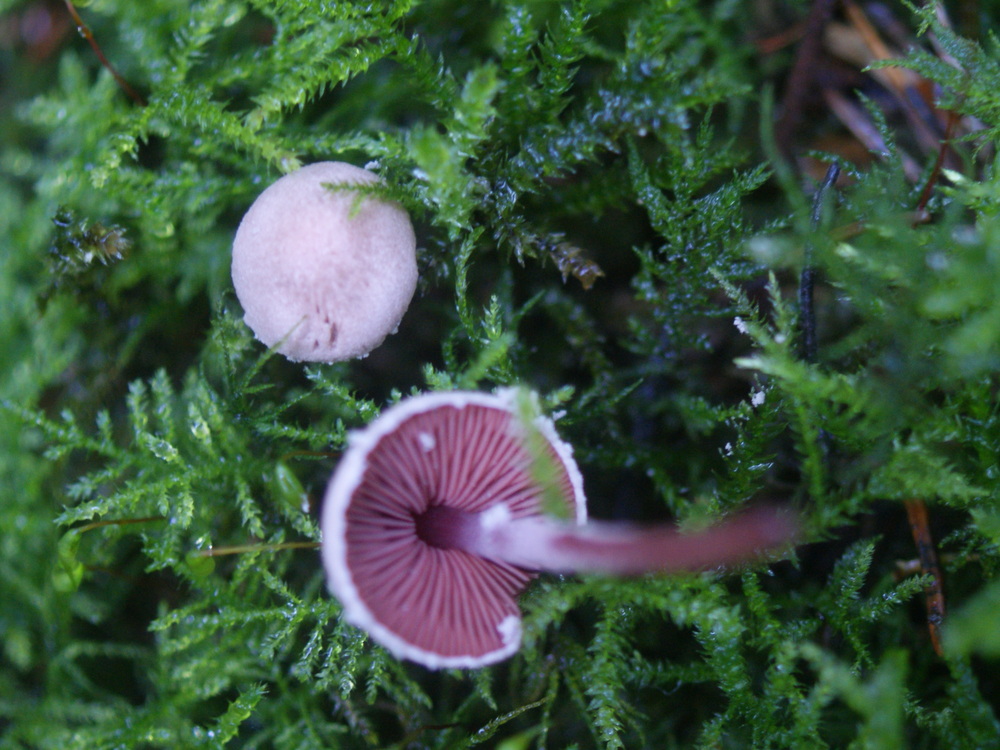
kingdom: Fungi
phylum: Basidiomycota
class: Agaricomycetes
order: Agaricales
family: Agaricaceae
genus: Melanophyllum
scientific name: Melanophyllum haematospermum
